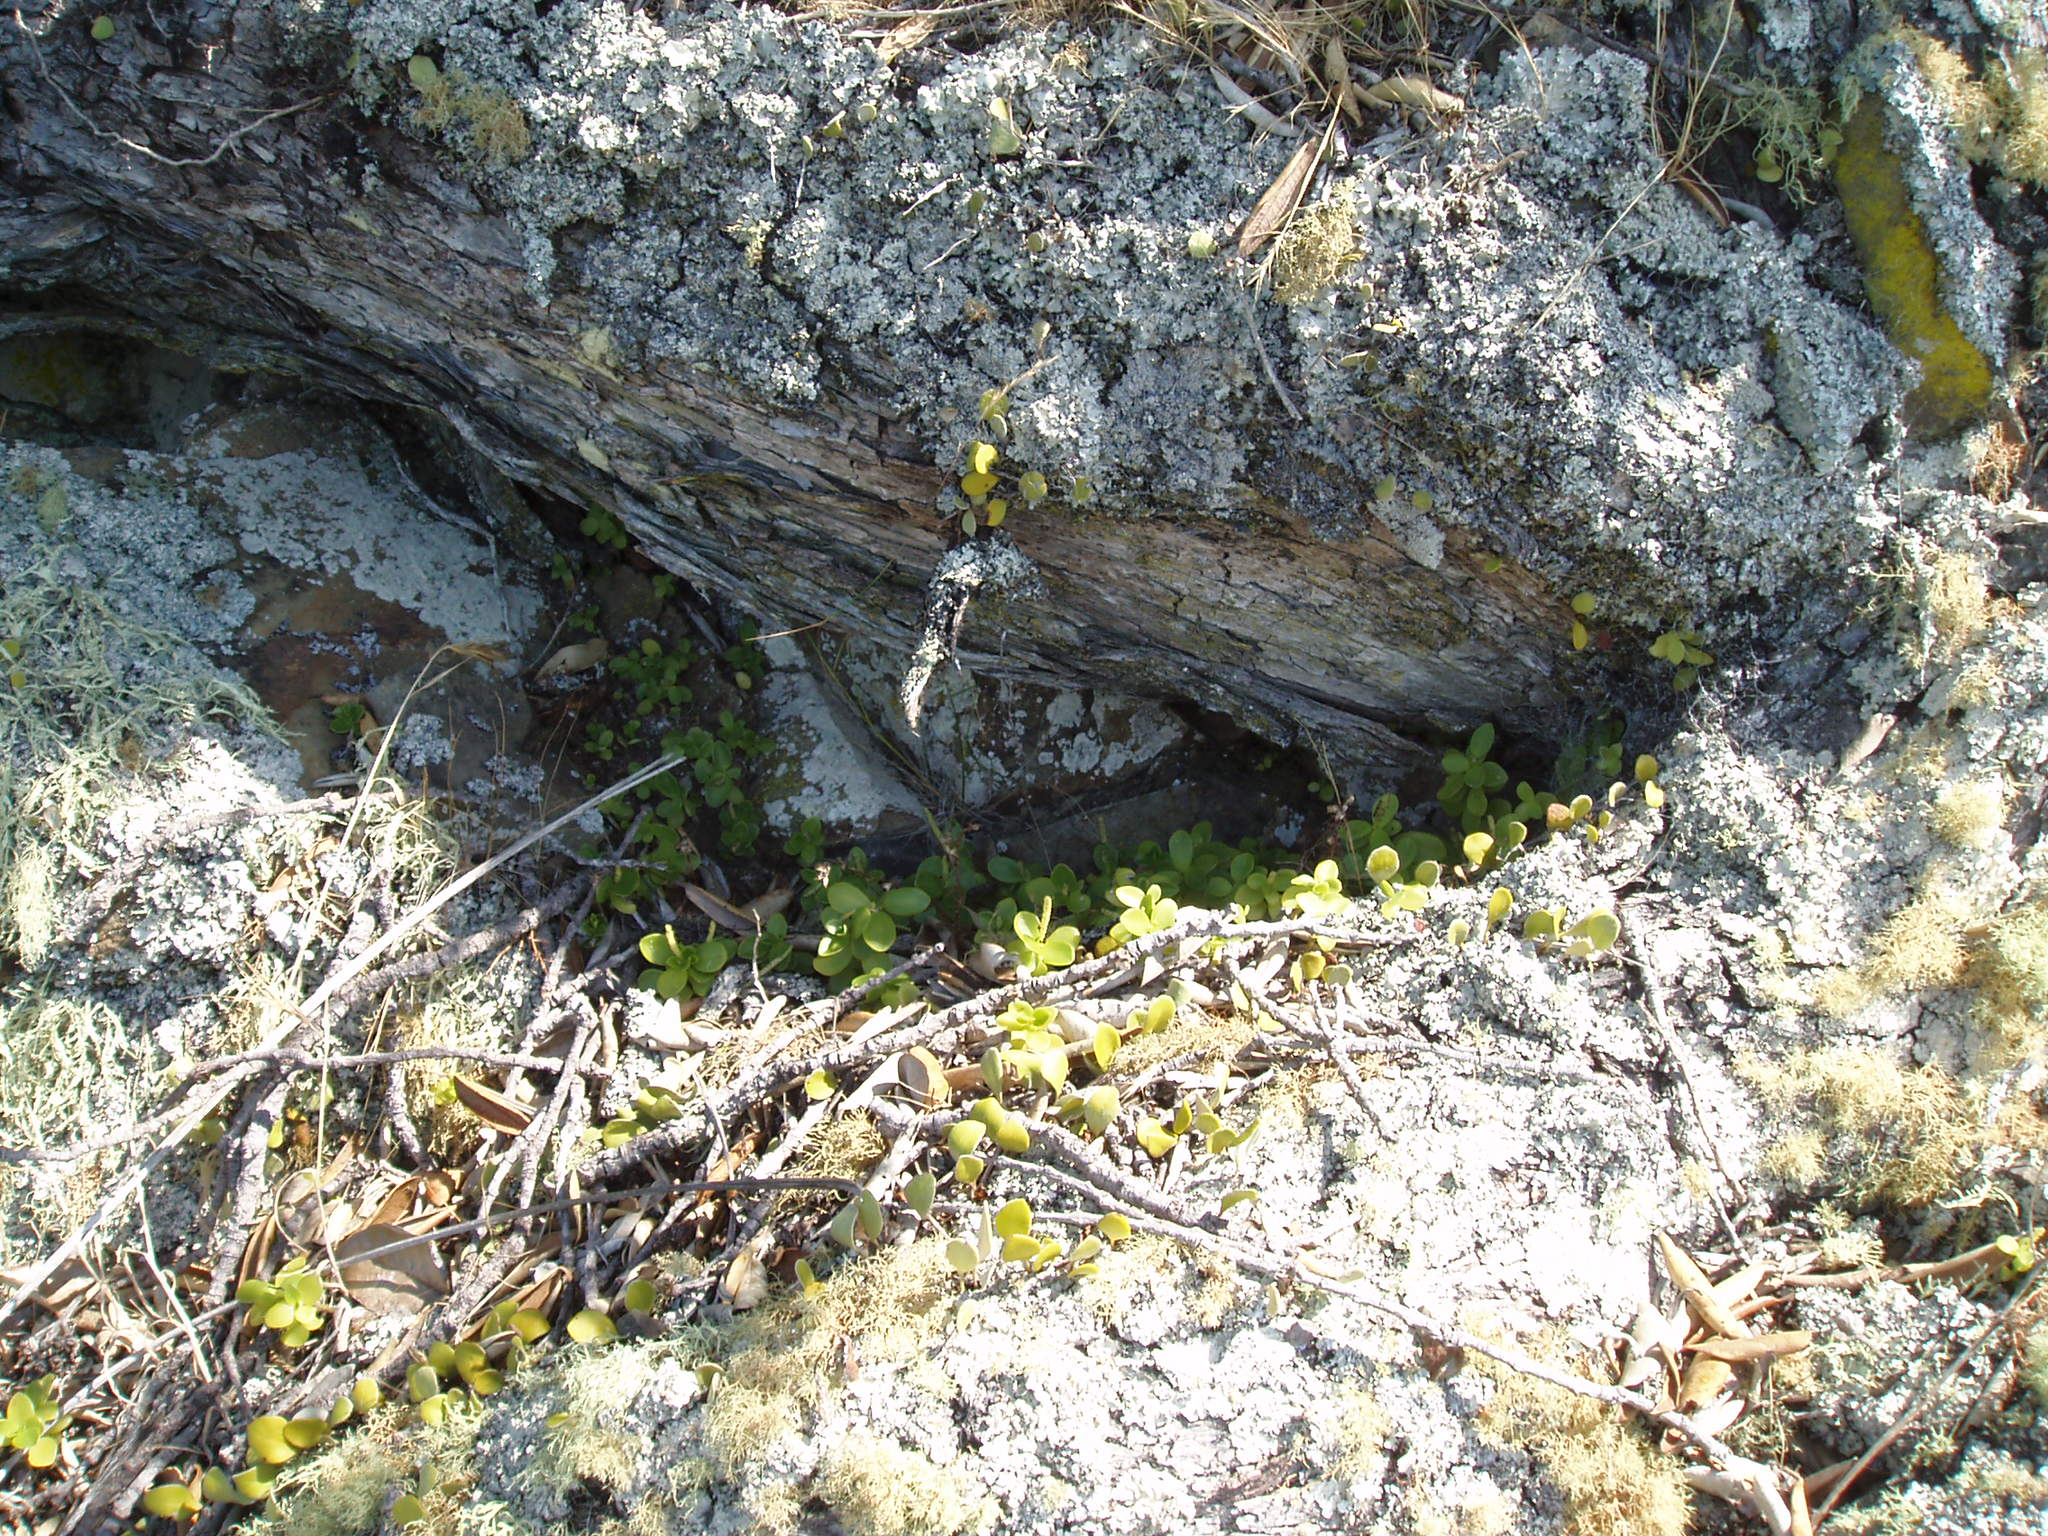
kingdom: Plantae
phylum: Tracheophyta
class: Magnoliopsida
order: Piperales
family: Piperaceae
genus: Peperomia
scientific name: Peperomia urvilleana
